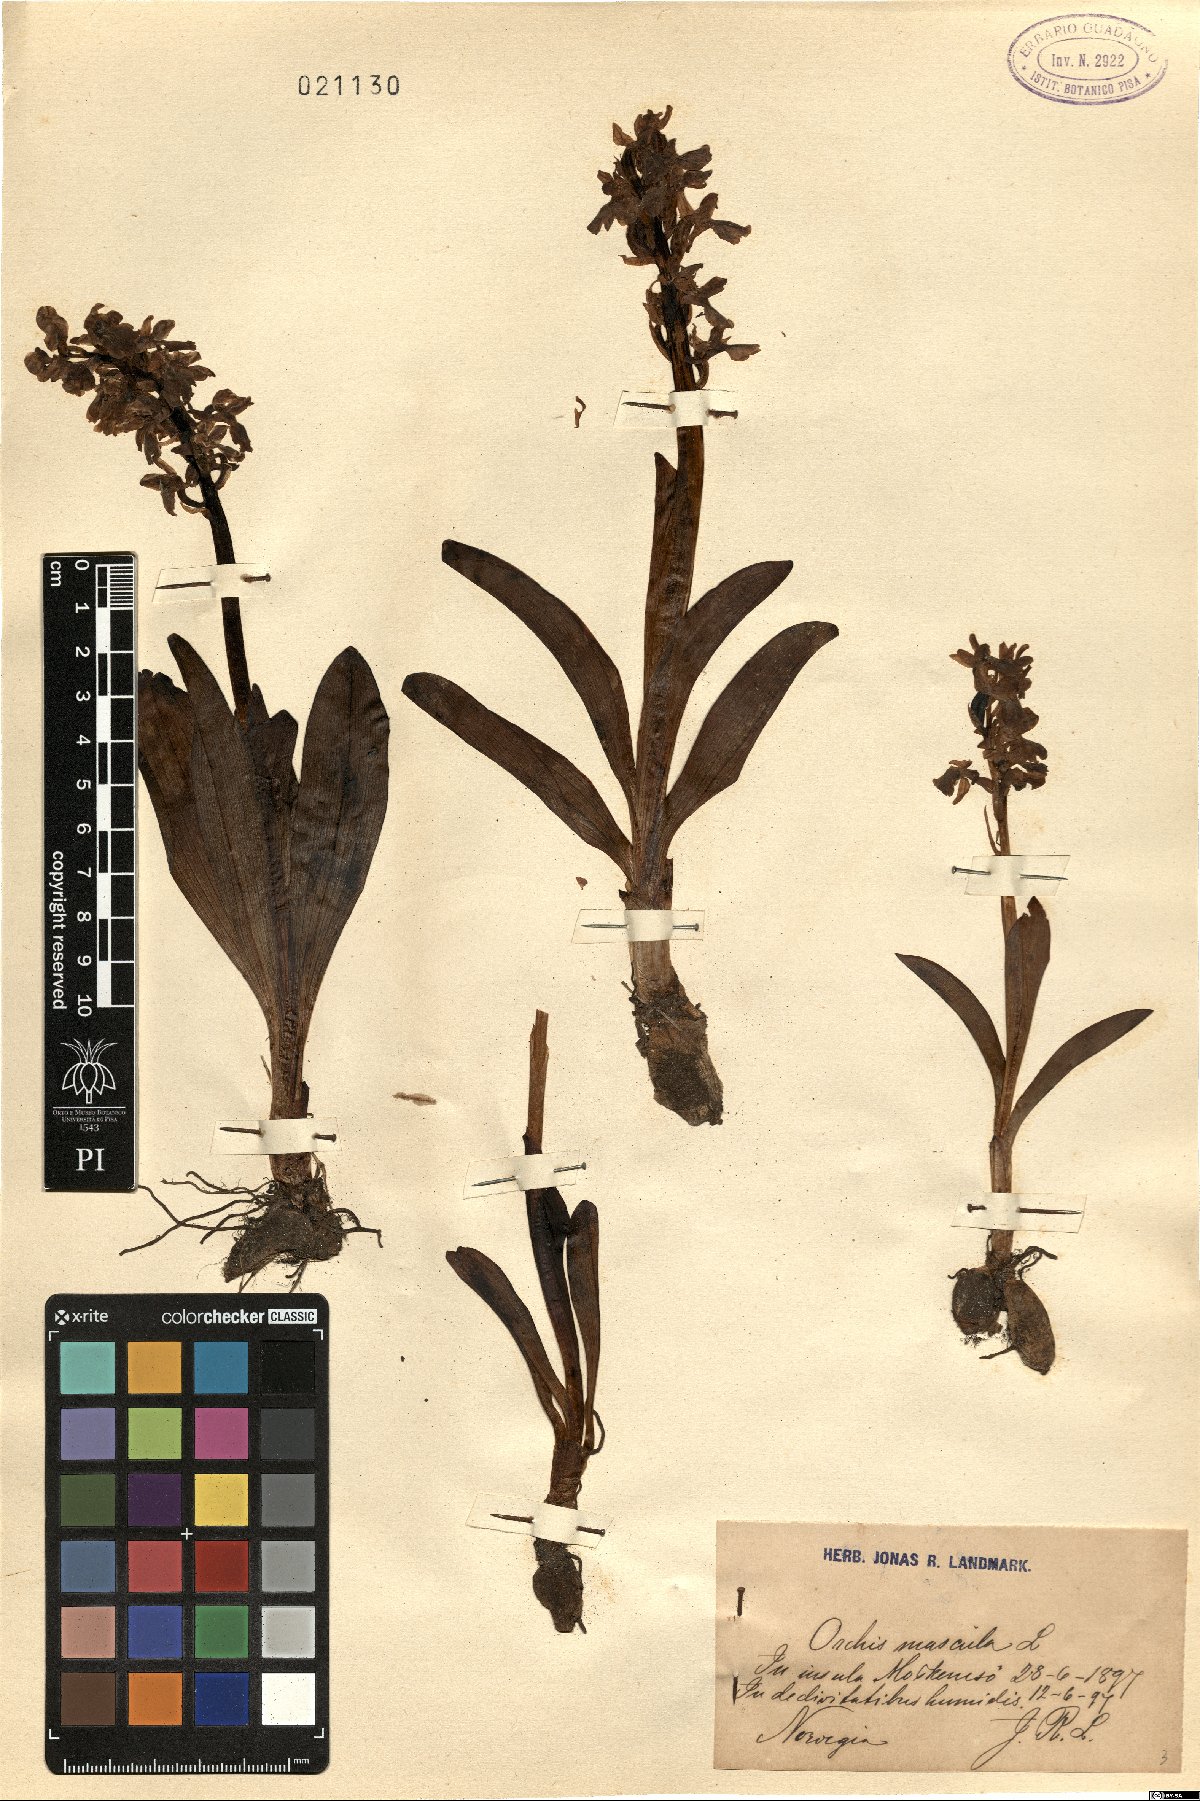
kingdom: Plantae
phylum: Tracheophyta
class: Liliopsida
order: Asparagales
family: Orchidaceae
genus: Orchis
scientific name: Orchis mascula
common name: Early-purple orchid
